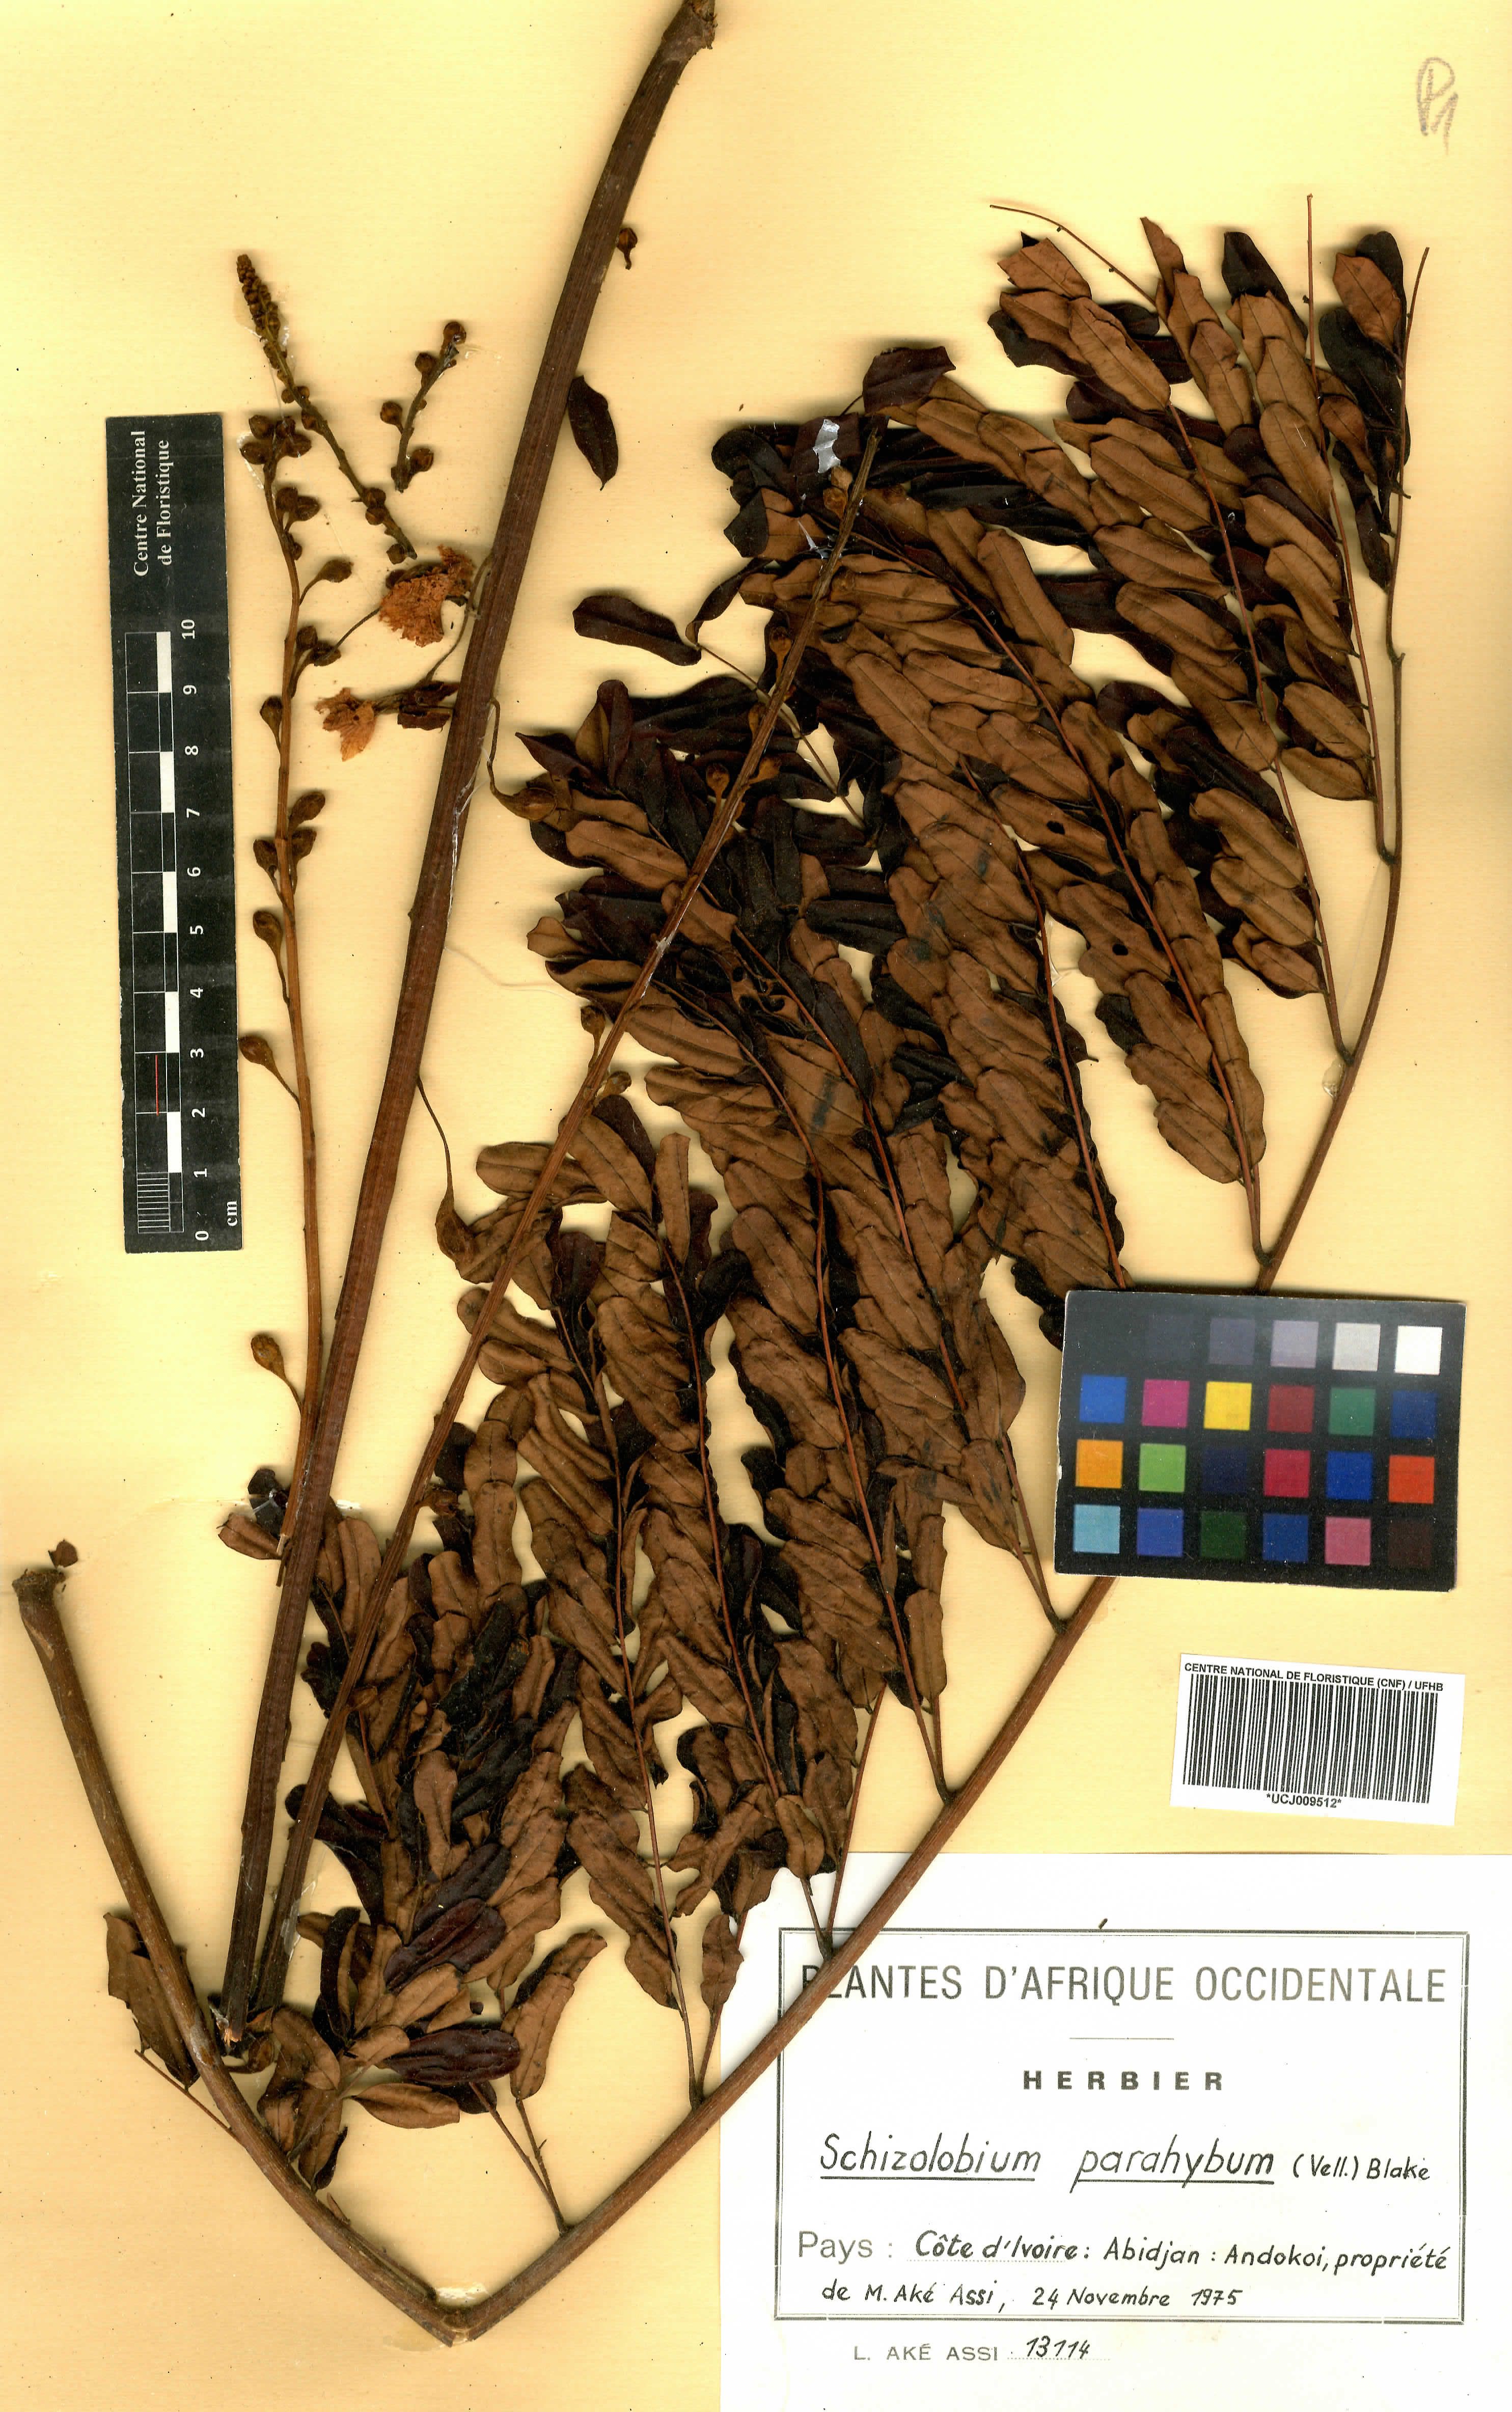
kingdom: Plantae
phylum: Tracheophyta
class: Magnoliopsida
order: Fabales
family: Fabaceae
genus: Schizolobium
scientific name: Schizolobium parahyba
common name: Brazilian firetree
